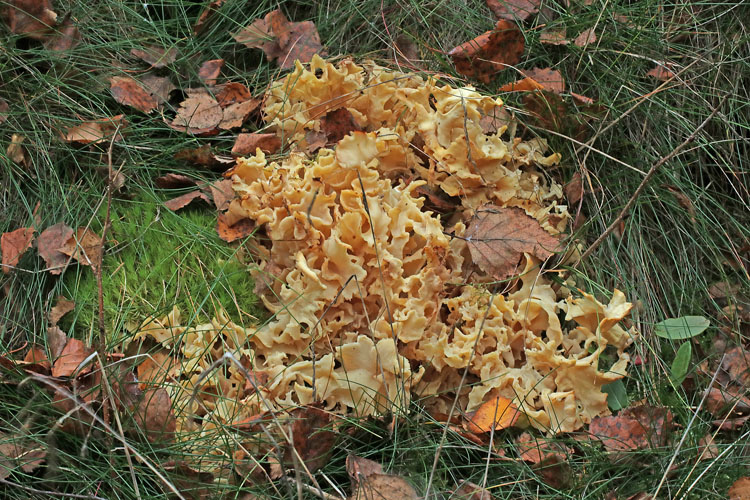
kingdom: Fungi
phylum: Basidiomycota
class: Agaricomycetes
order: Polyporales
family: Sparassidaceae
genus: Sparassis
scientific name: Sparassis crispa
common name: kruset blomkålssvamp
